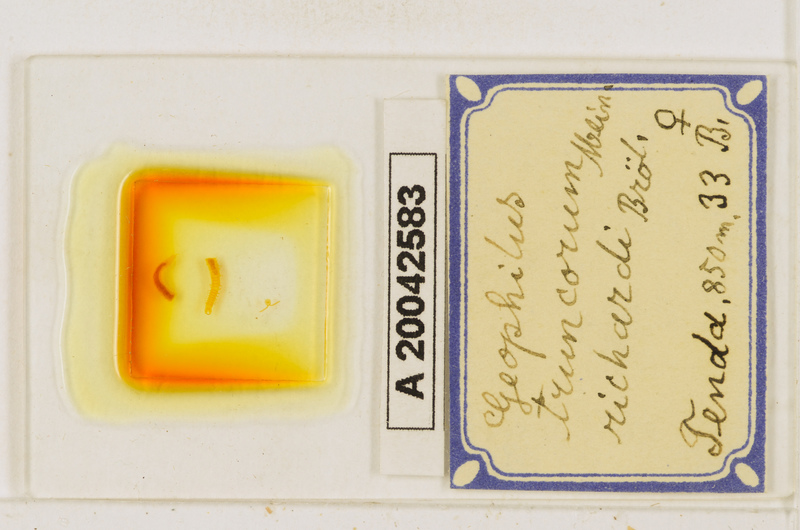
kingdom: Animalia
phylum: Arthropoda
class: Chilopoda
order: Geophilomorpha
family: Geophilidae
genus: Geophilus
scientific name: Geophilus truncorum
